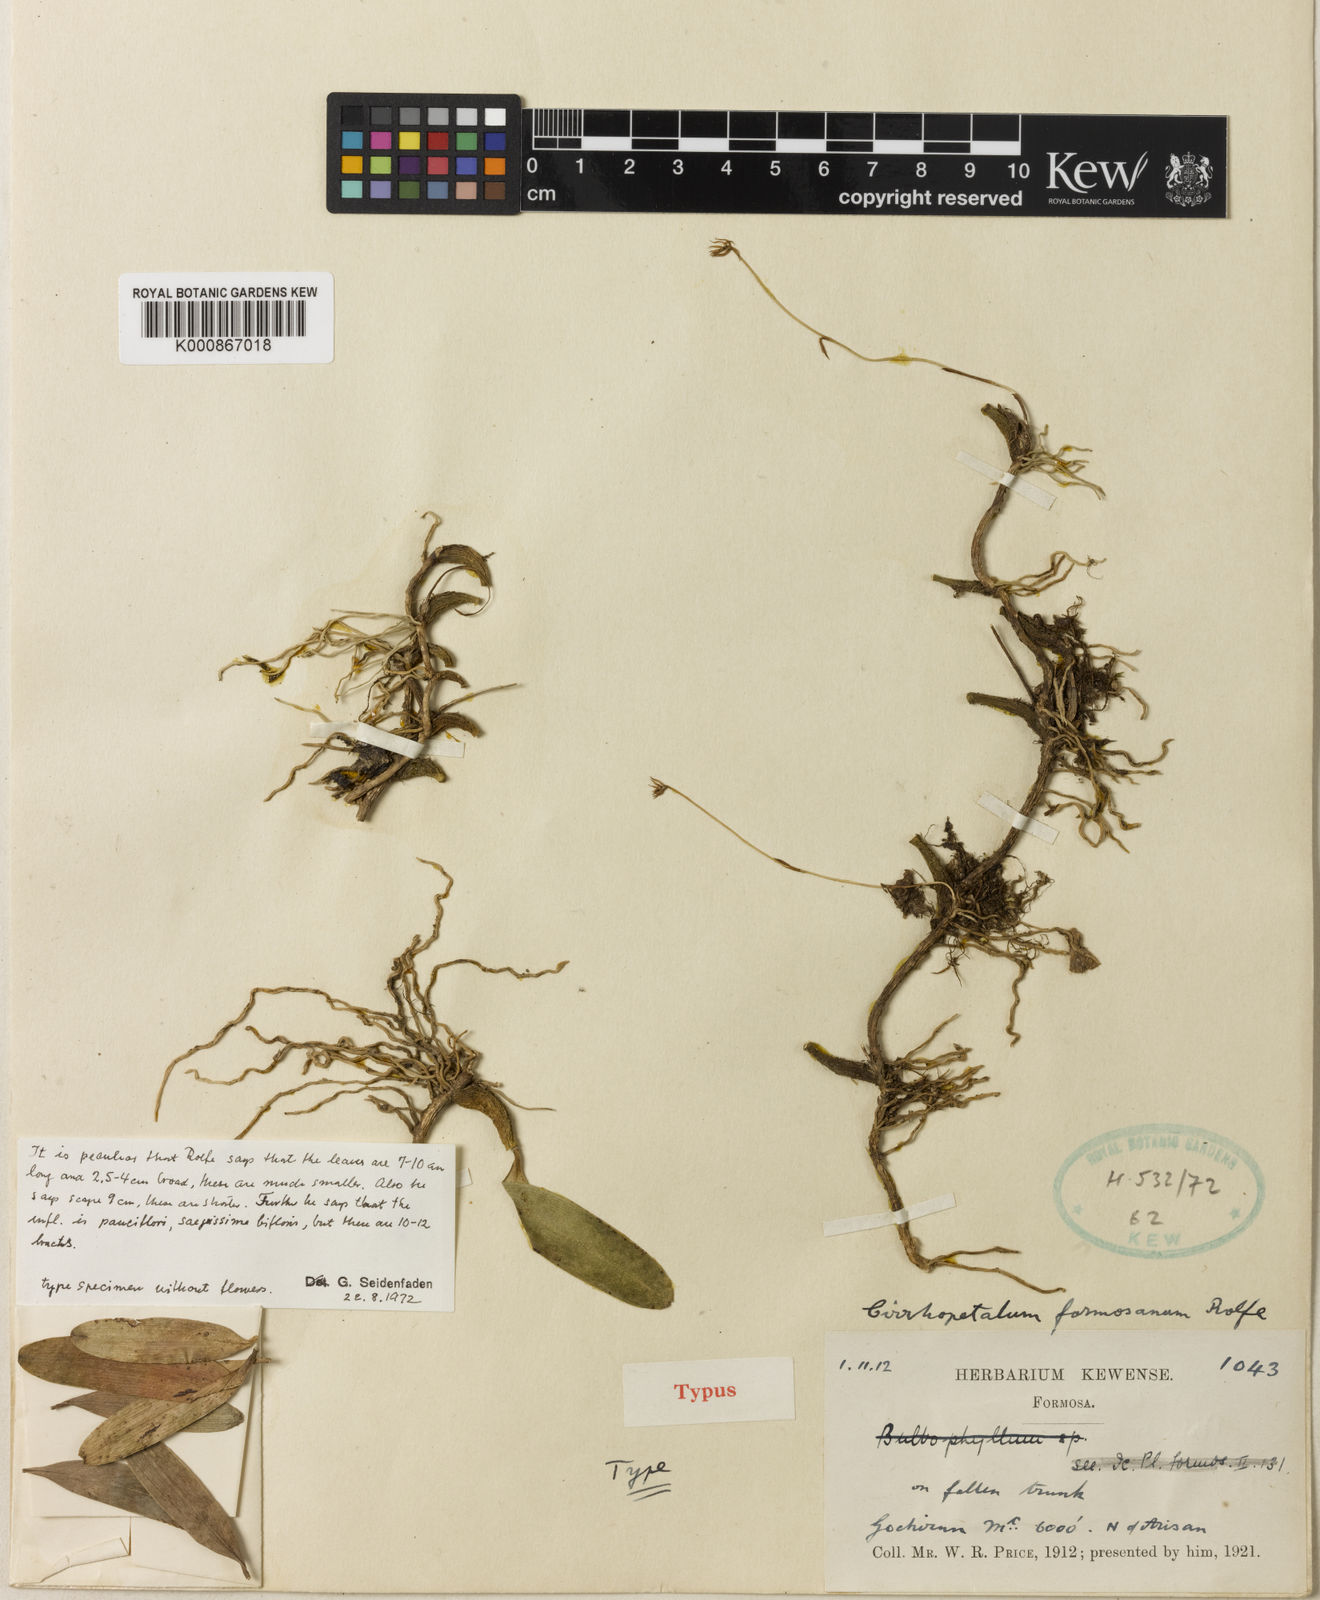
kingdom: Plantae
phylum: Tracheophyta
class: Liliopsida
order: Asparagales
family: Orchidaceae
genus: Bulbophyllum
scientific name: Bulbophyllum macraei
